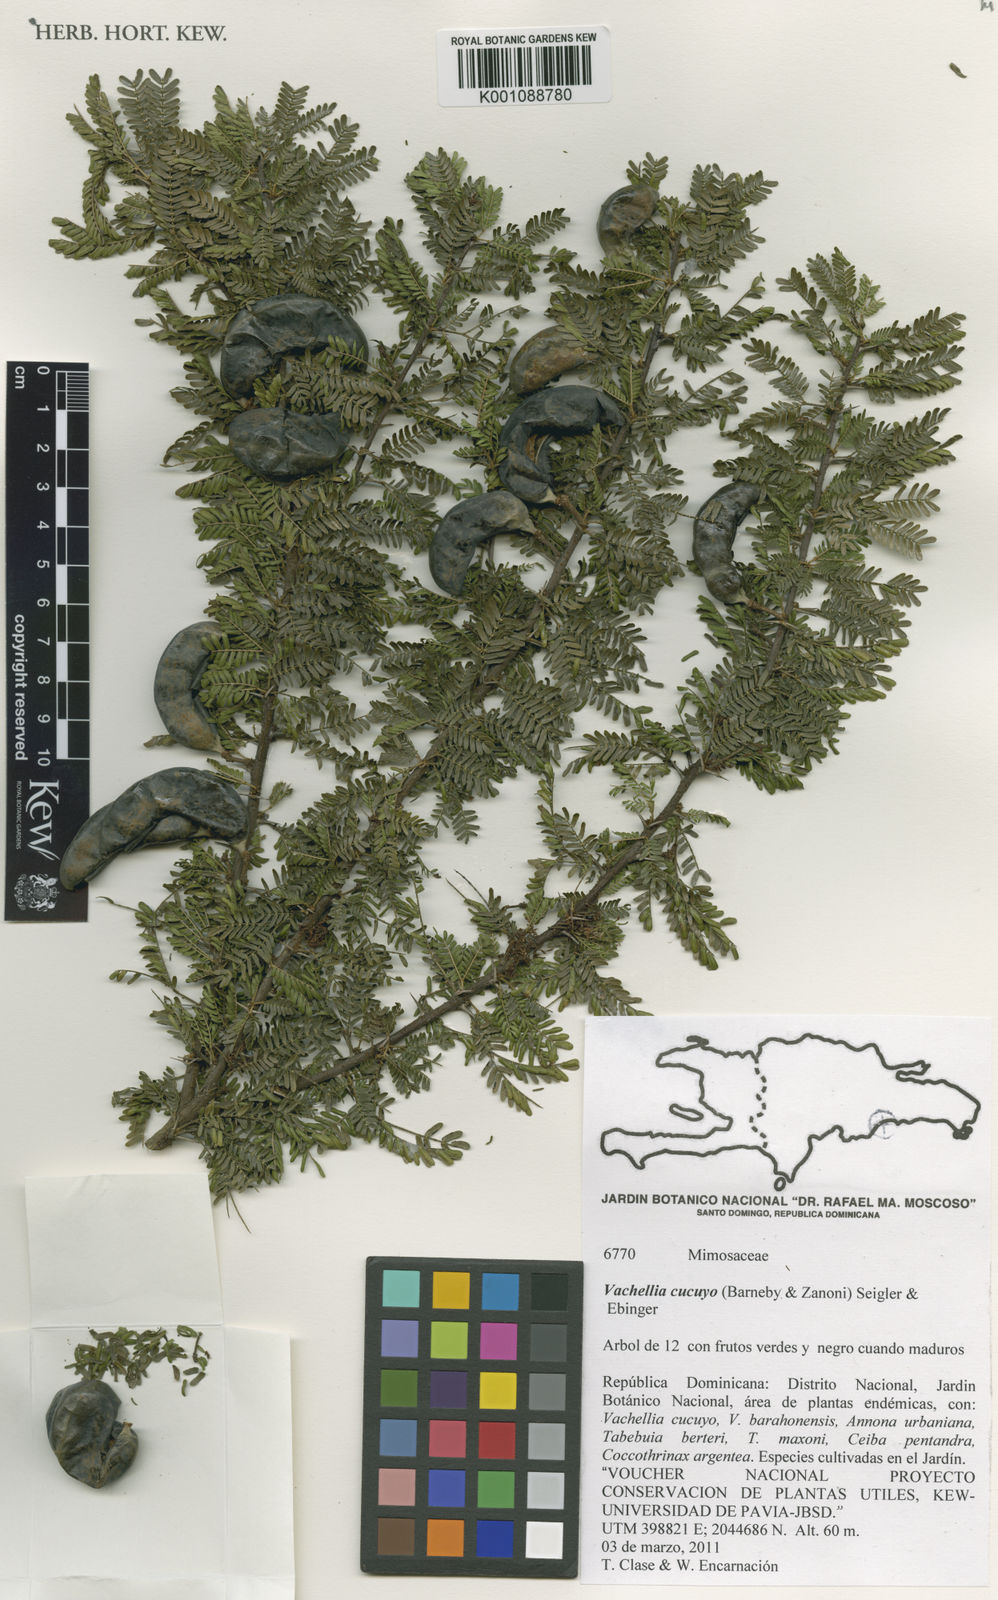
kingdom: Plantae
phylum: Tracheophyta
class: Magnoliopsida
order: Fabales
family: Fabaceae
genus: Vachellia
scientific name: Vachellia cucuyo
